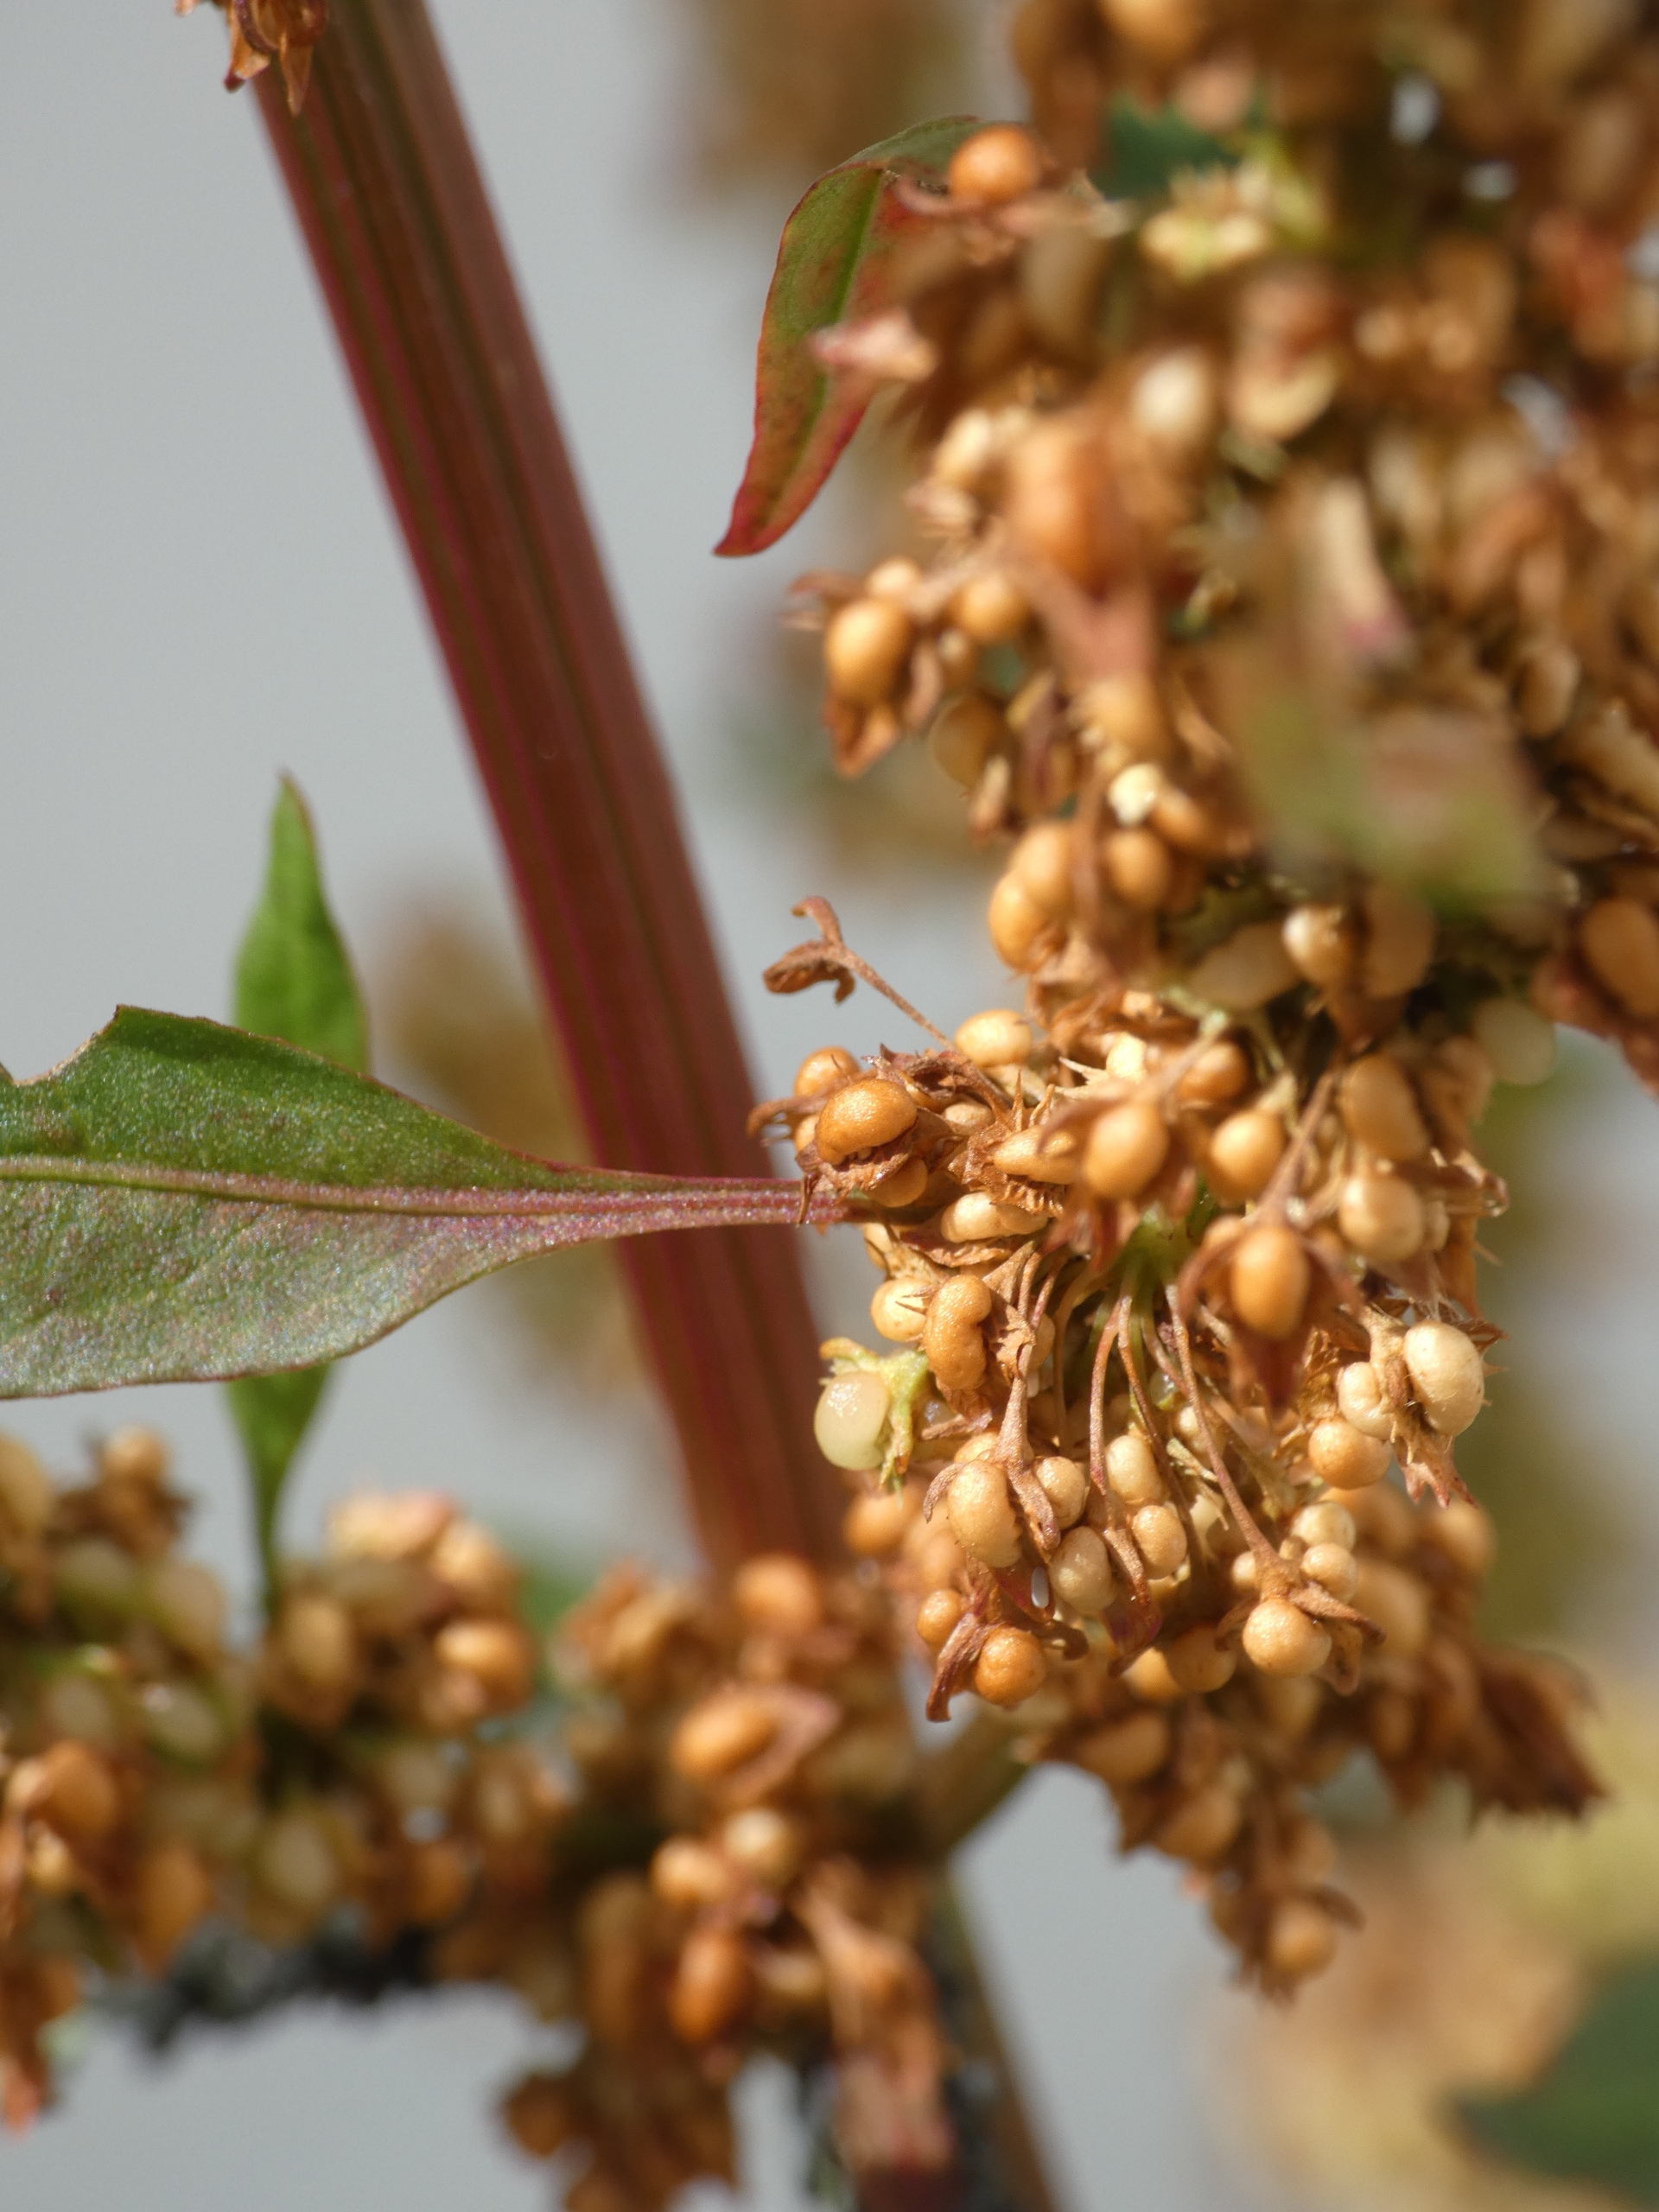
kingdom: Plantae
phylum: Tracheophyta
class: Magnoliopsida
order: Caryophyllales
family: Polygonaceae
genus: Rumex
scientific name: Rumex obtusifolius
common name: Tandfri skræppe
